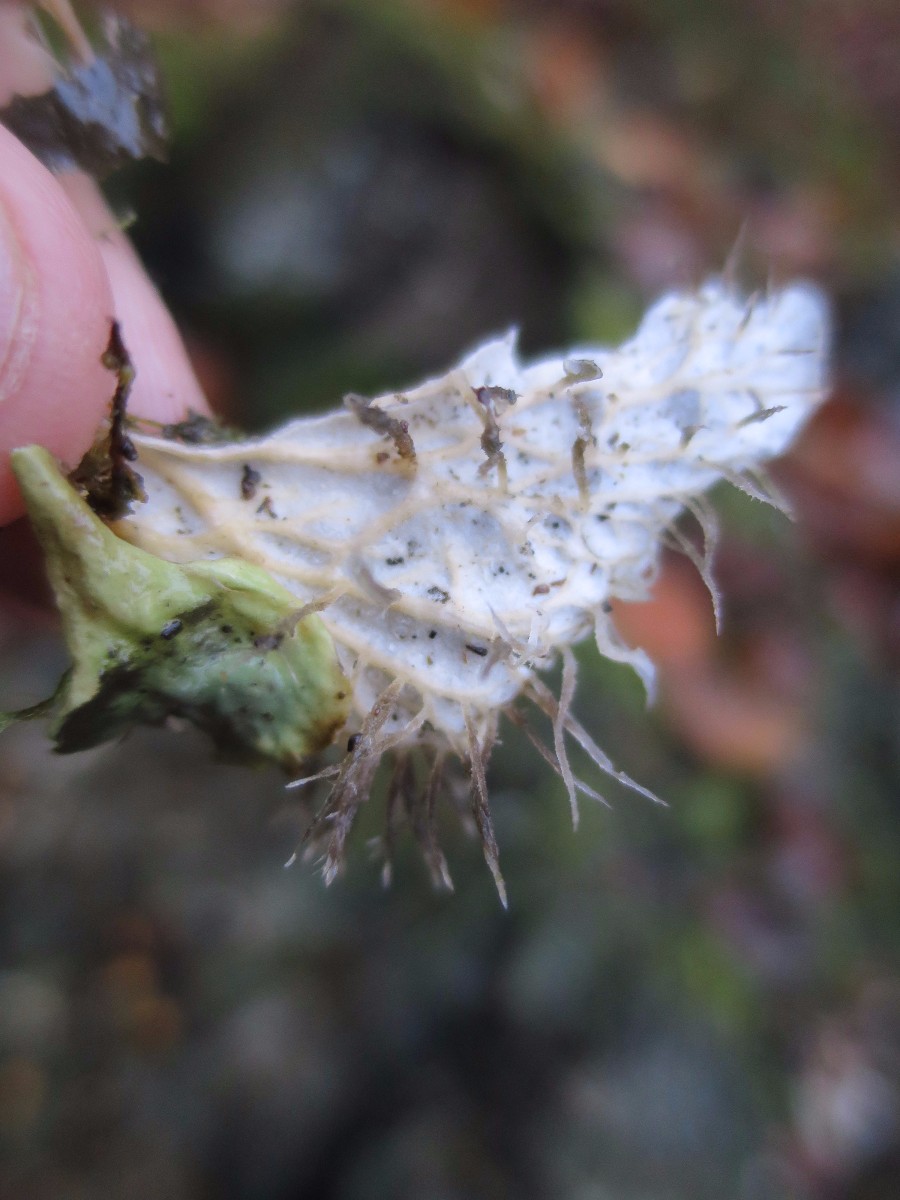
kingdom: Fungi
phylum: Ascomycota
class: Lecanoromycetes
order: Peltigerales
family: Peltigeraceae
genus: Peltigera
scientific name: Peltigera membranacea
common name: tynd skjoldlav
